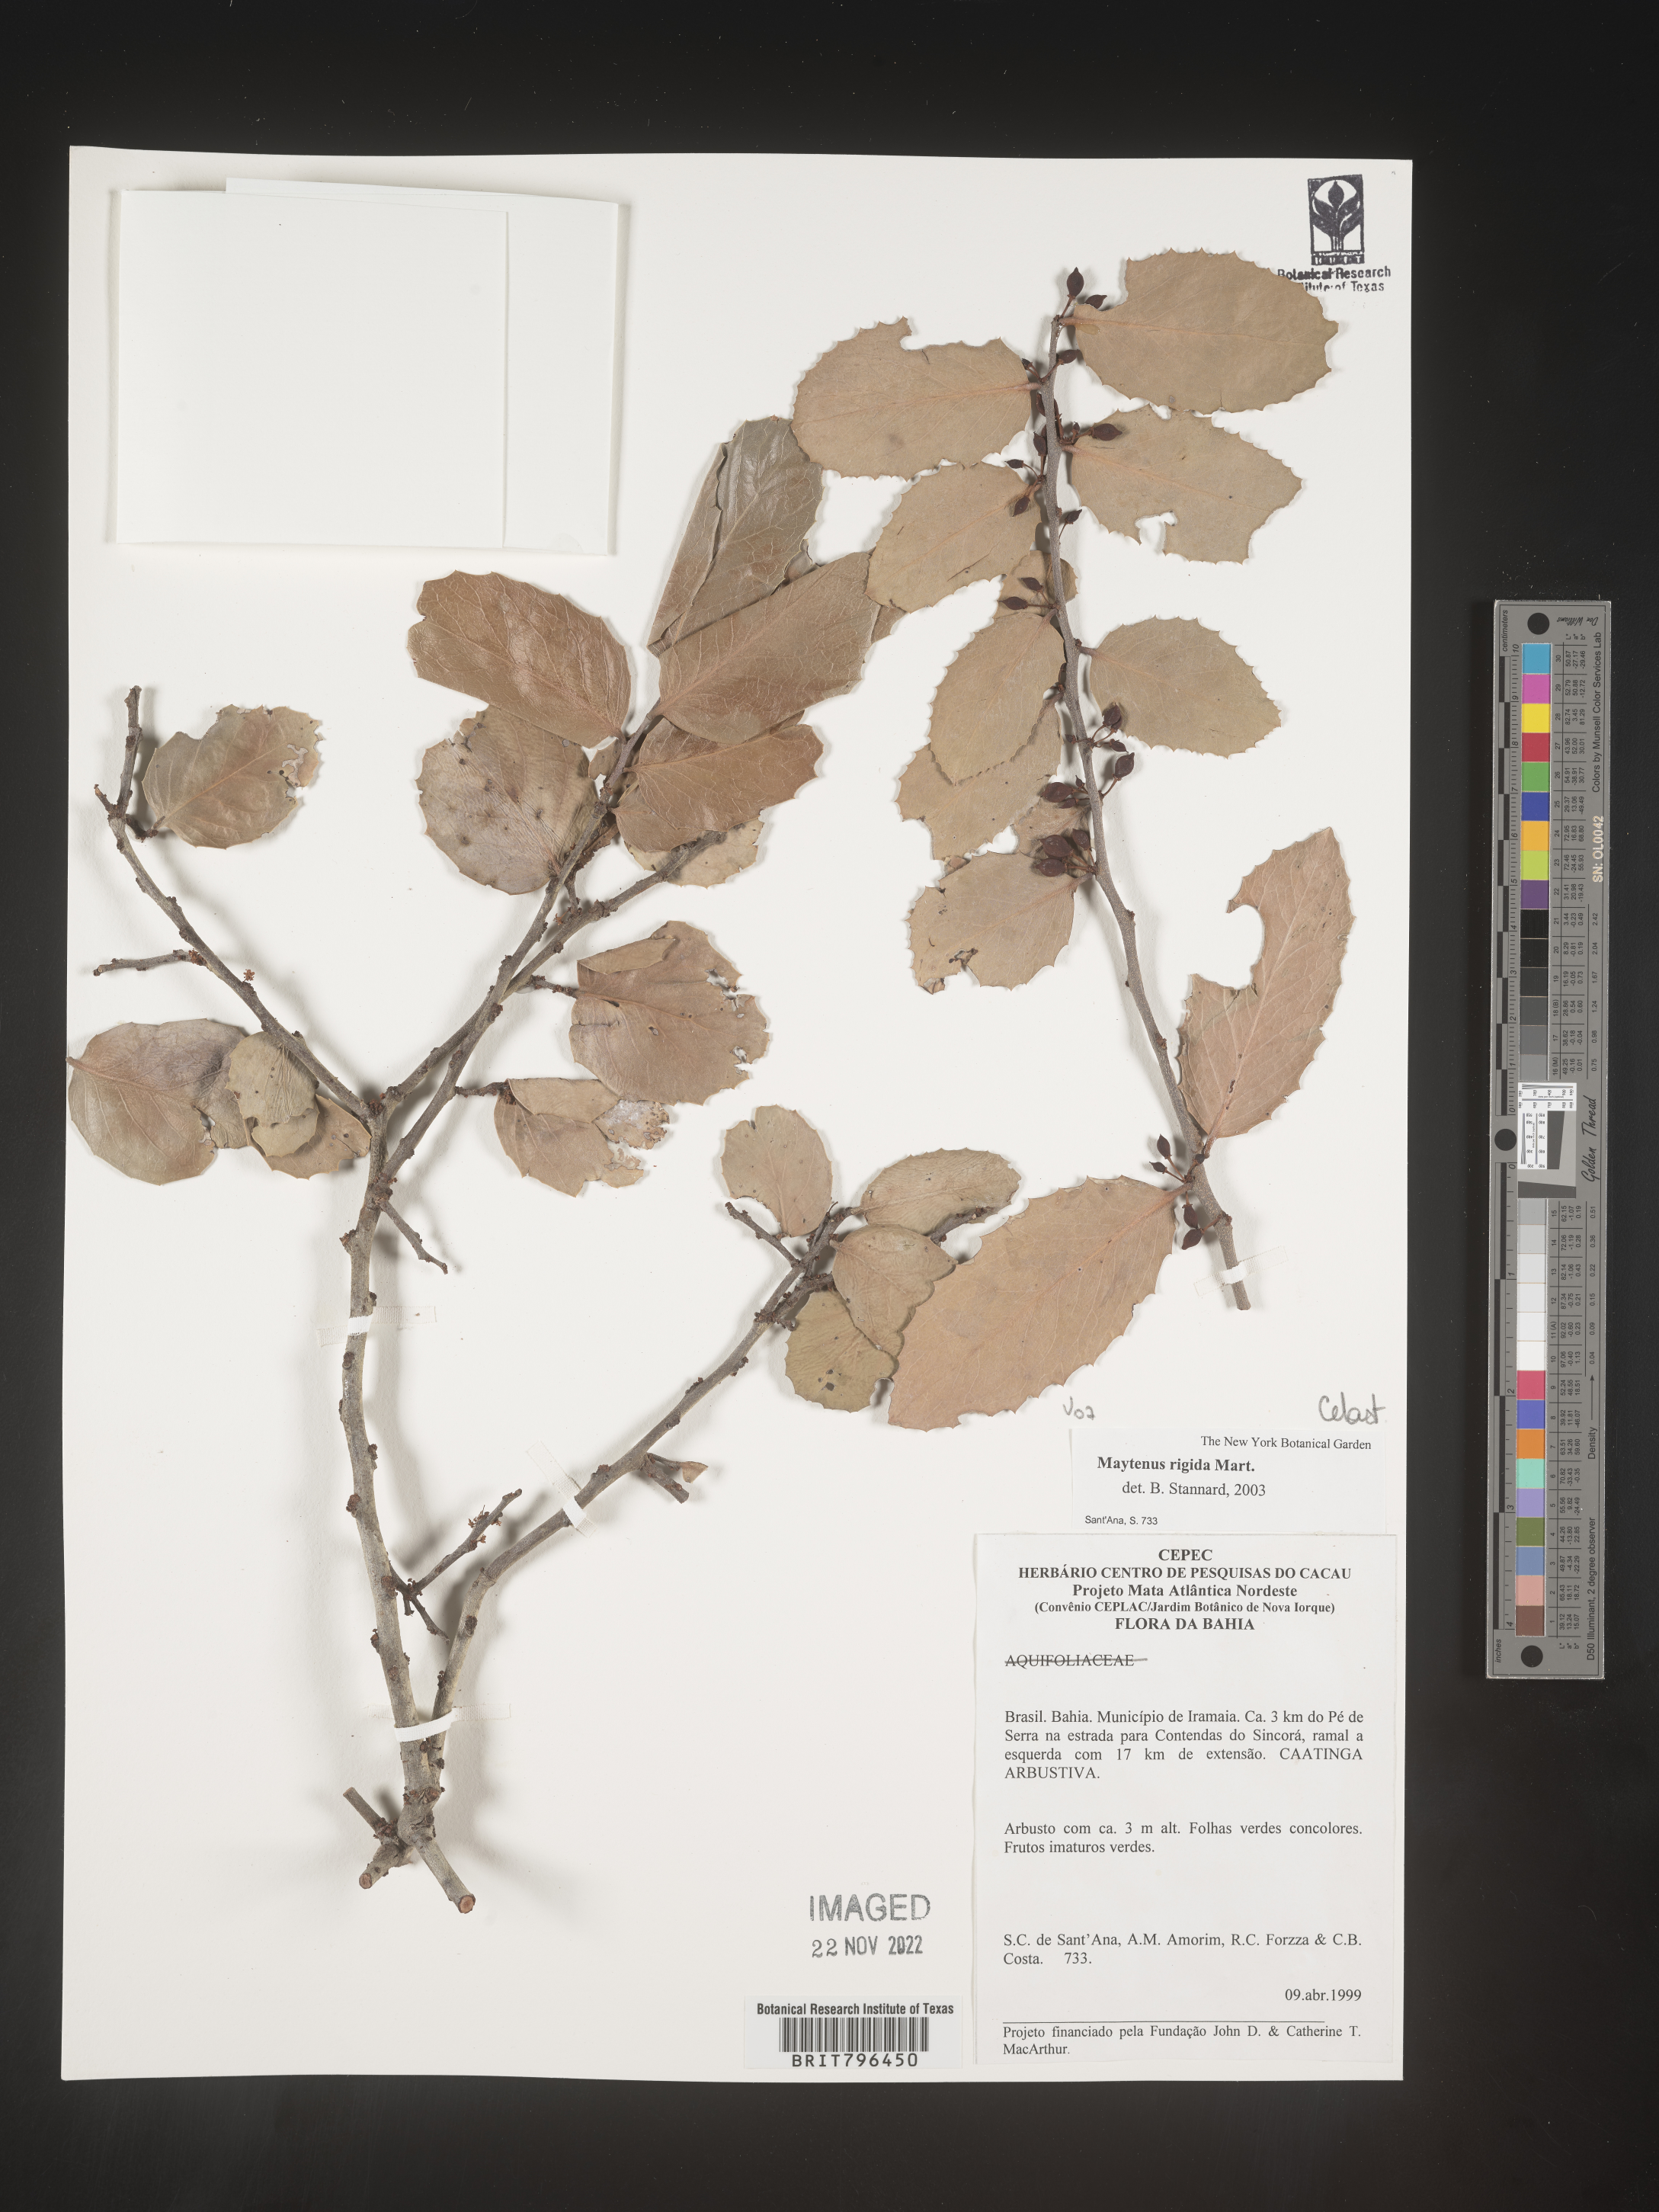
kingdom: Plantae
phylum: Tracheophyta
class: Magnoliopsida
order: Celastrales
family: Celastraceae
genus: Maytenus
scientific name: Maytenus
